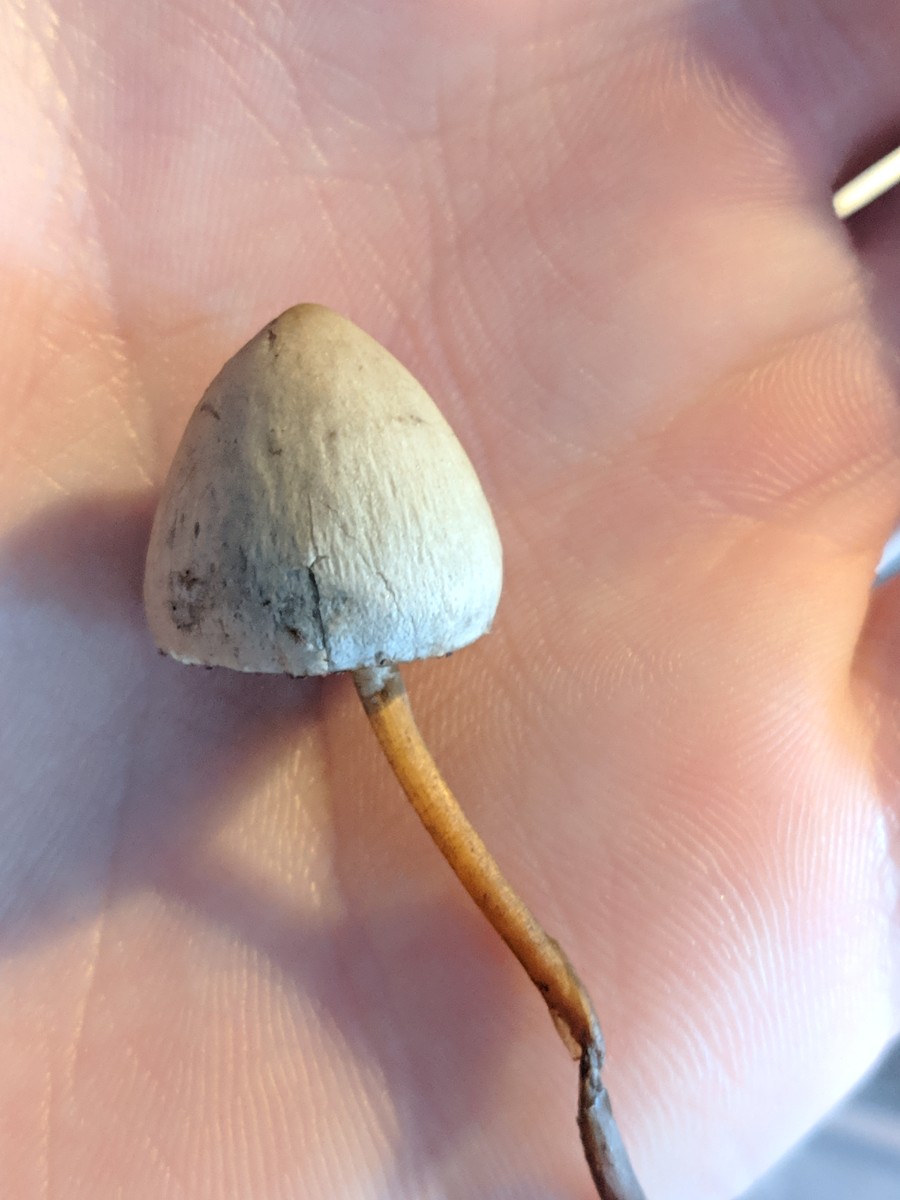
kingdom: Fungi
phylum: Basidiomycota
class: Agaricomycetes
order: Agaricales
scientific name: Agaricales
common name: champignonordenen
